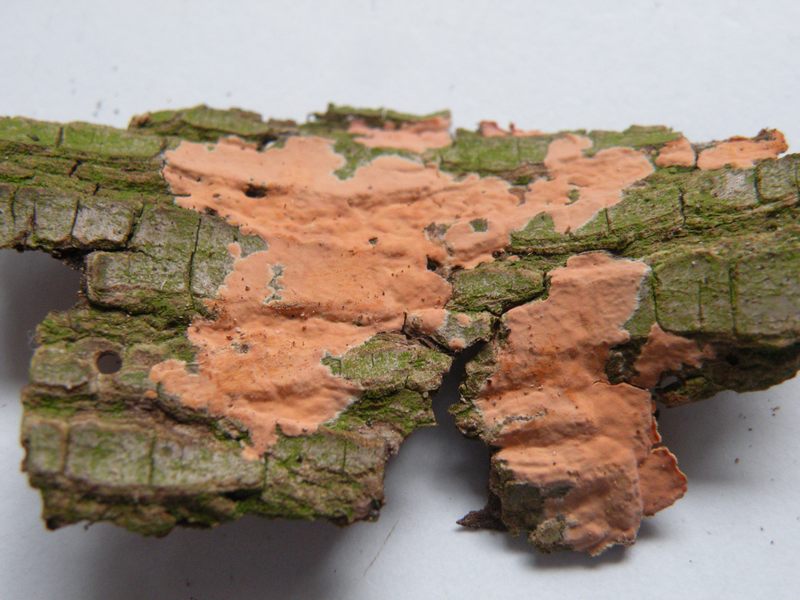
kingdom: Fungi
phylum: Basidiomycota
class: Agaricomycetes
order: Russulales
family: Peniophoraceae
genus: Peniophora
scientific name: Peniophora incarnata
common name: laksefarvet voksskind
